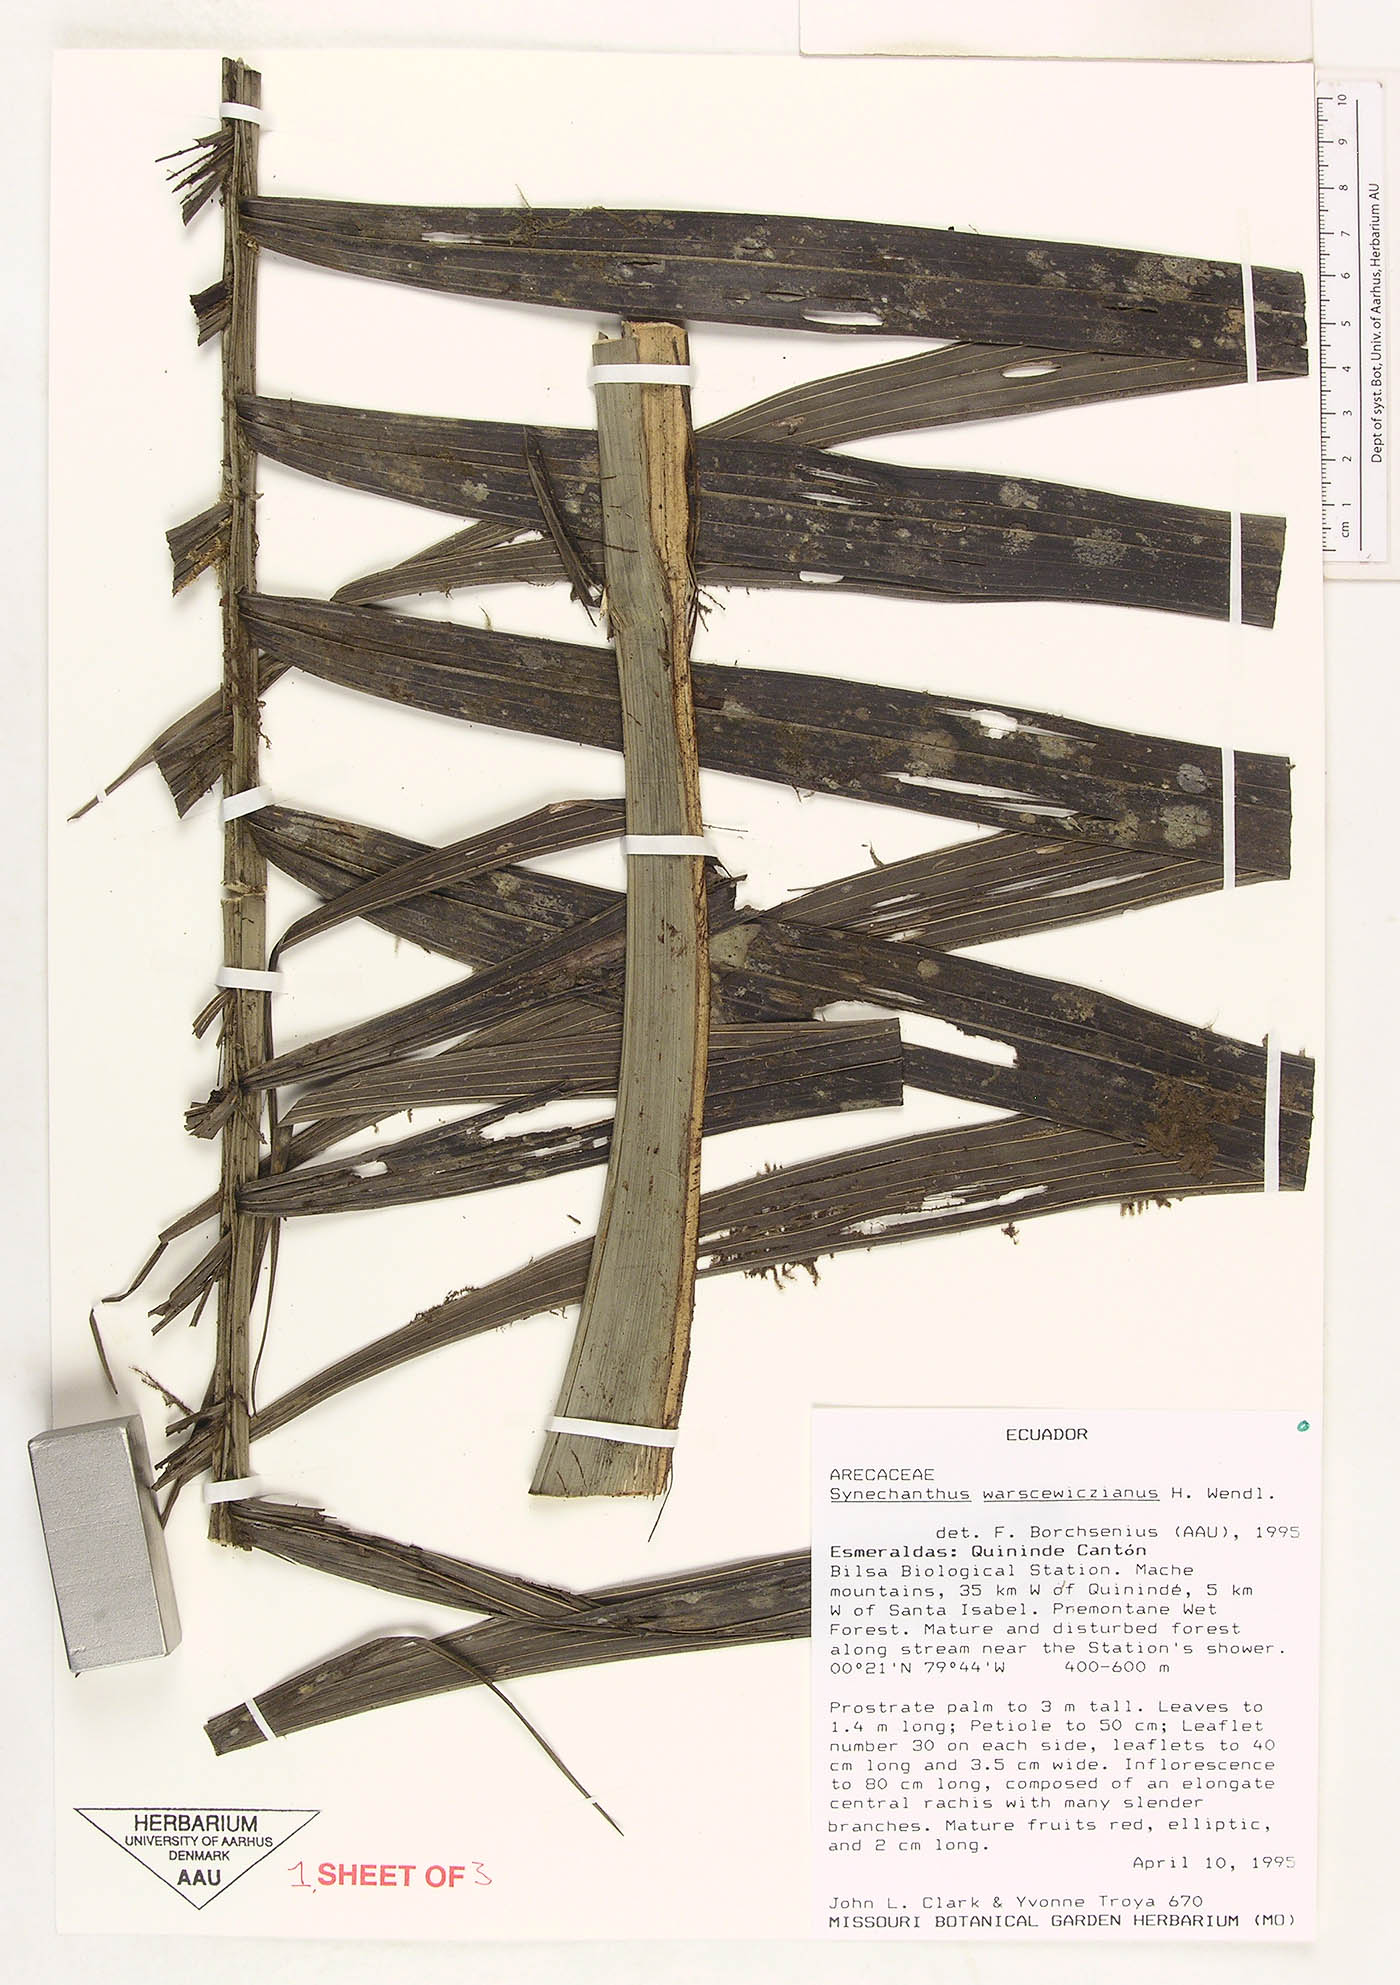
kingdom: Plantae
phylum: Tracheophyta
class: Liliopsida
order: Arecales
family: Arecaceae
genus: Synechanthus
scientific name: Synechanthus warscewiczianus
